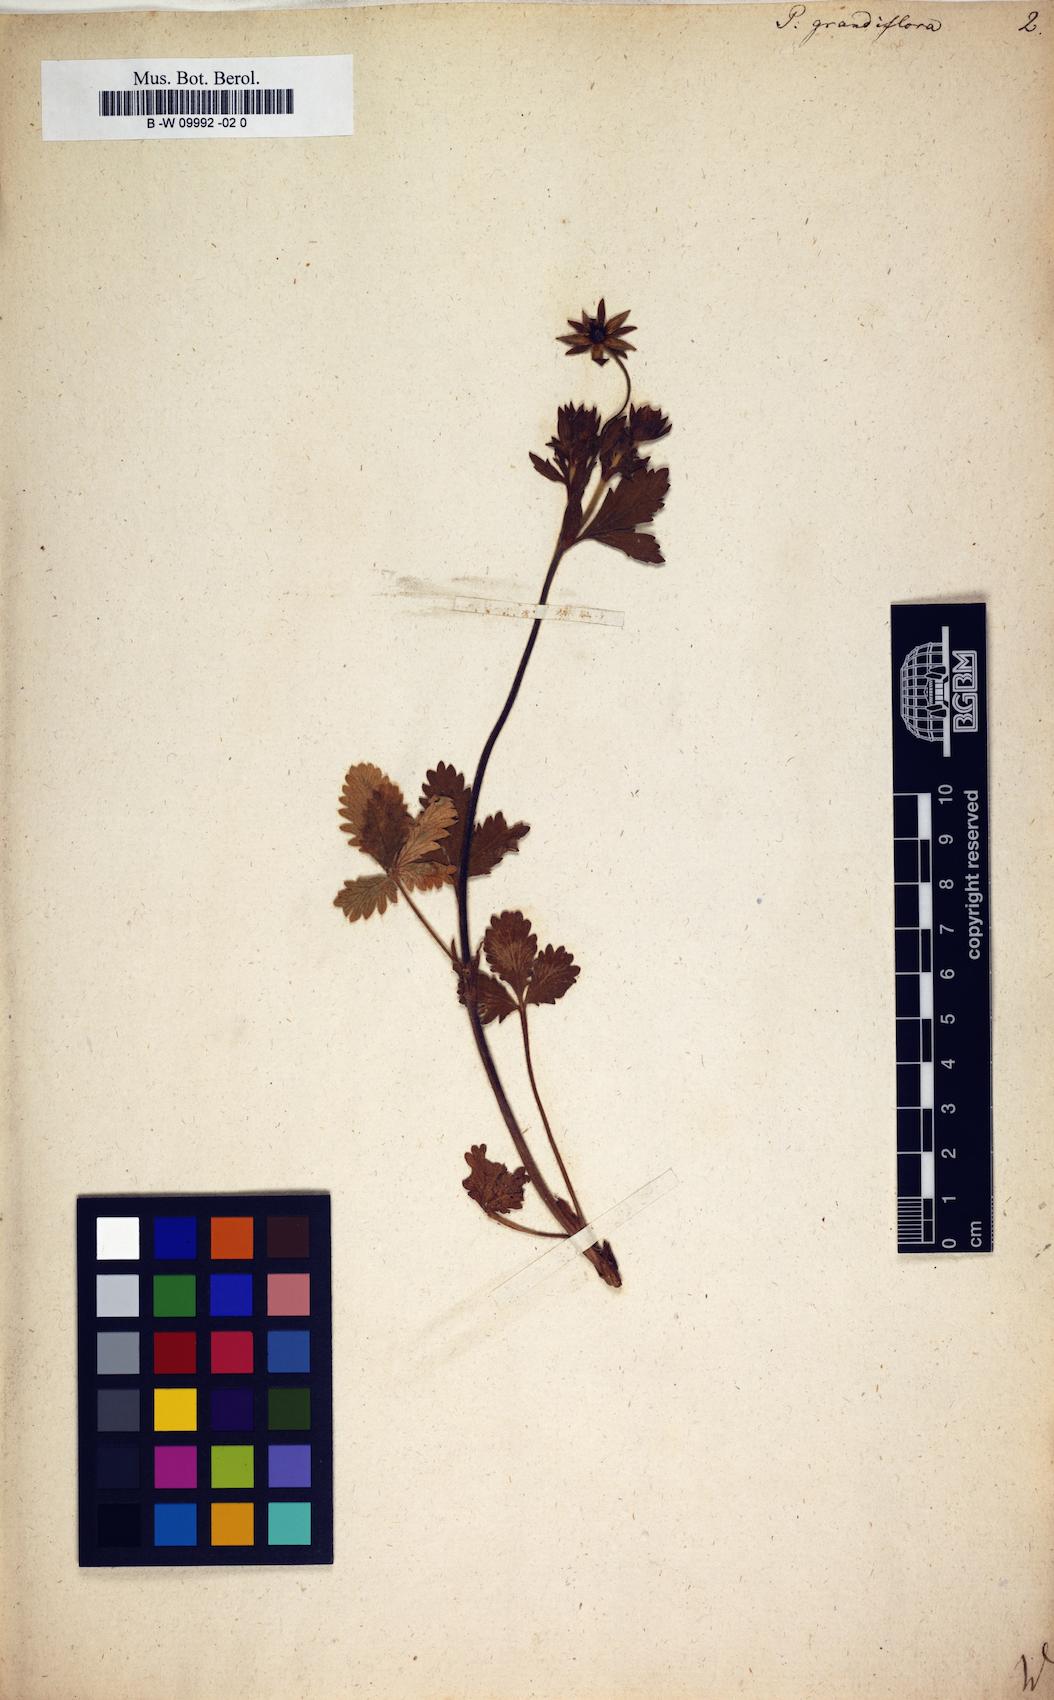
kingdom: Plantae
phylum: Tracheophyta
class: Magnoliopsida
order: Rosales
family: Rosaceae
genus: Potentilla
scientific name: Potentilla grandiflora
